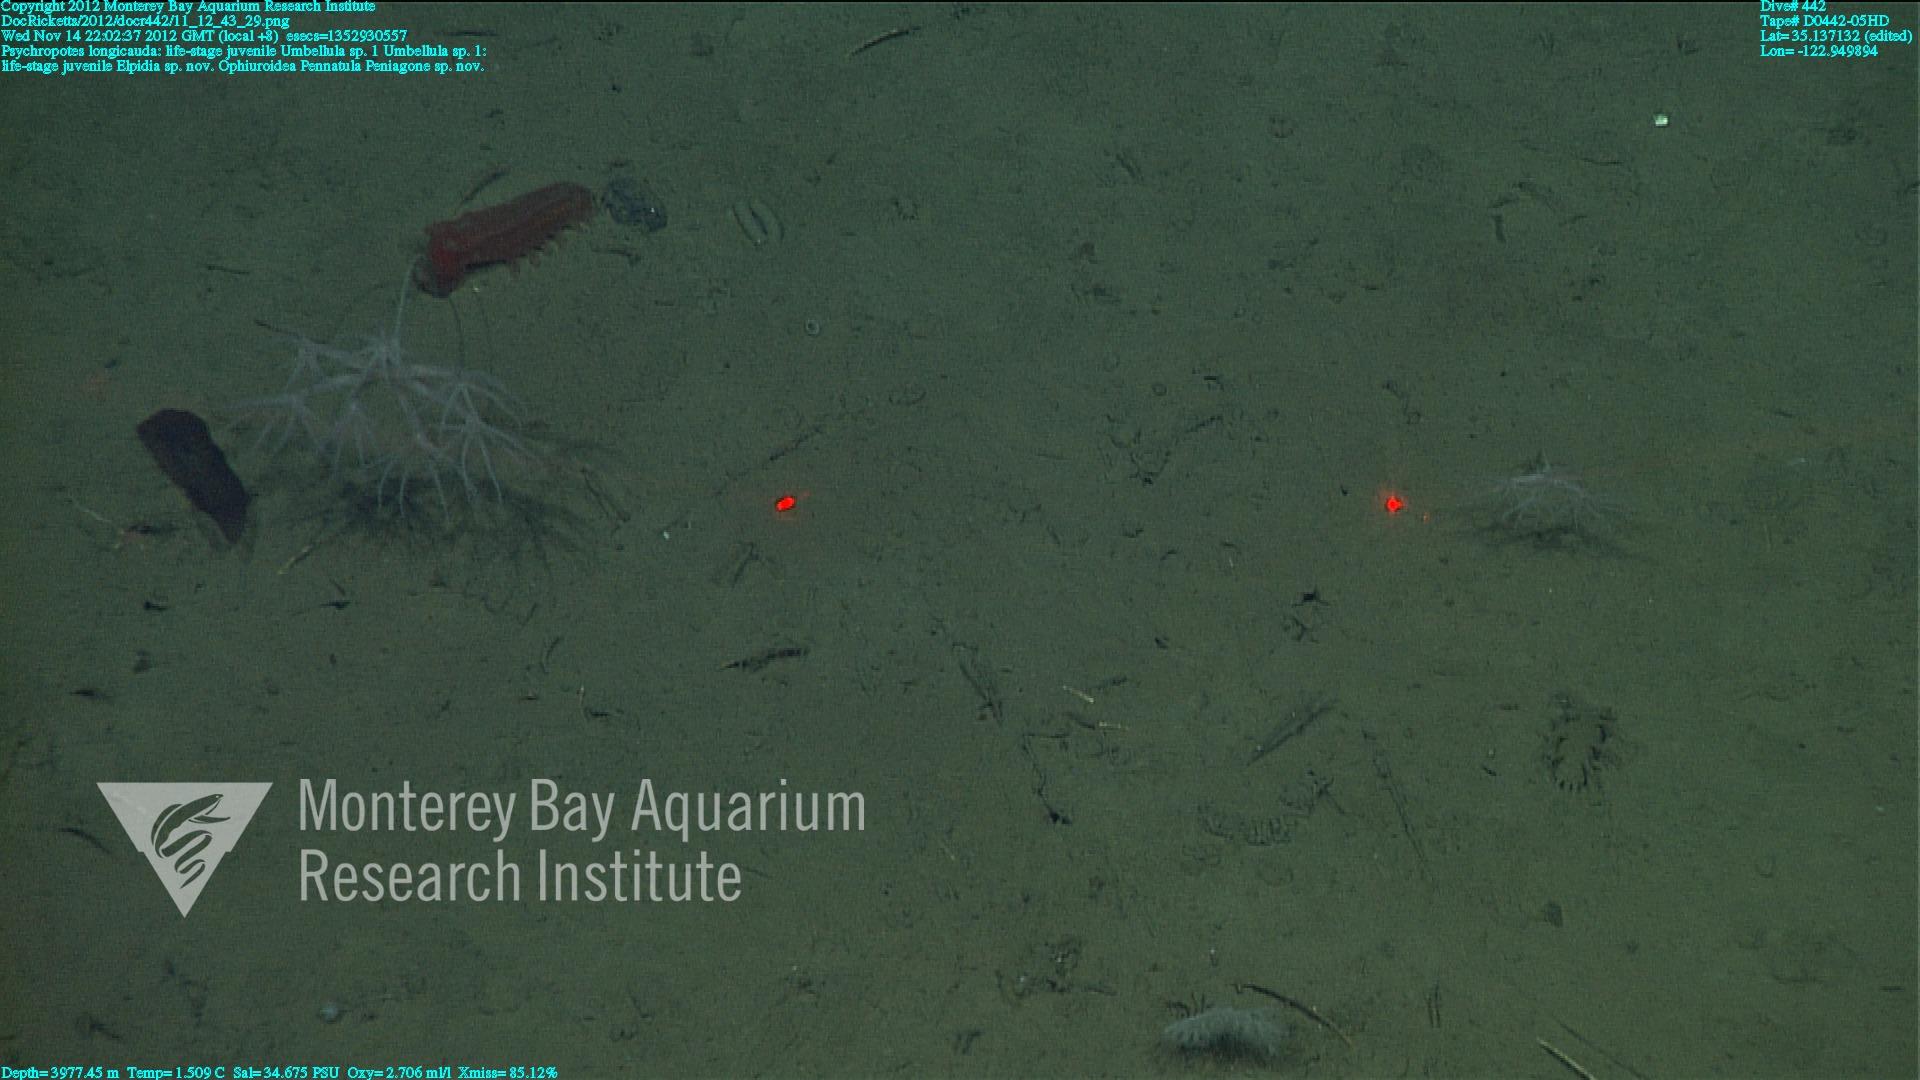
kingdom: Animalia
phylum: Cnidaria
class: Anthozoa
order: Scleralcyonacea
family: Umbellulidae
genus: Umbellula
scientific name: Umbellula
